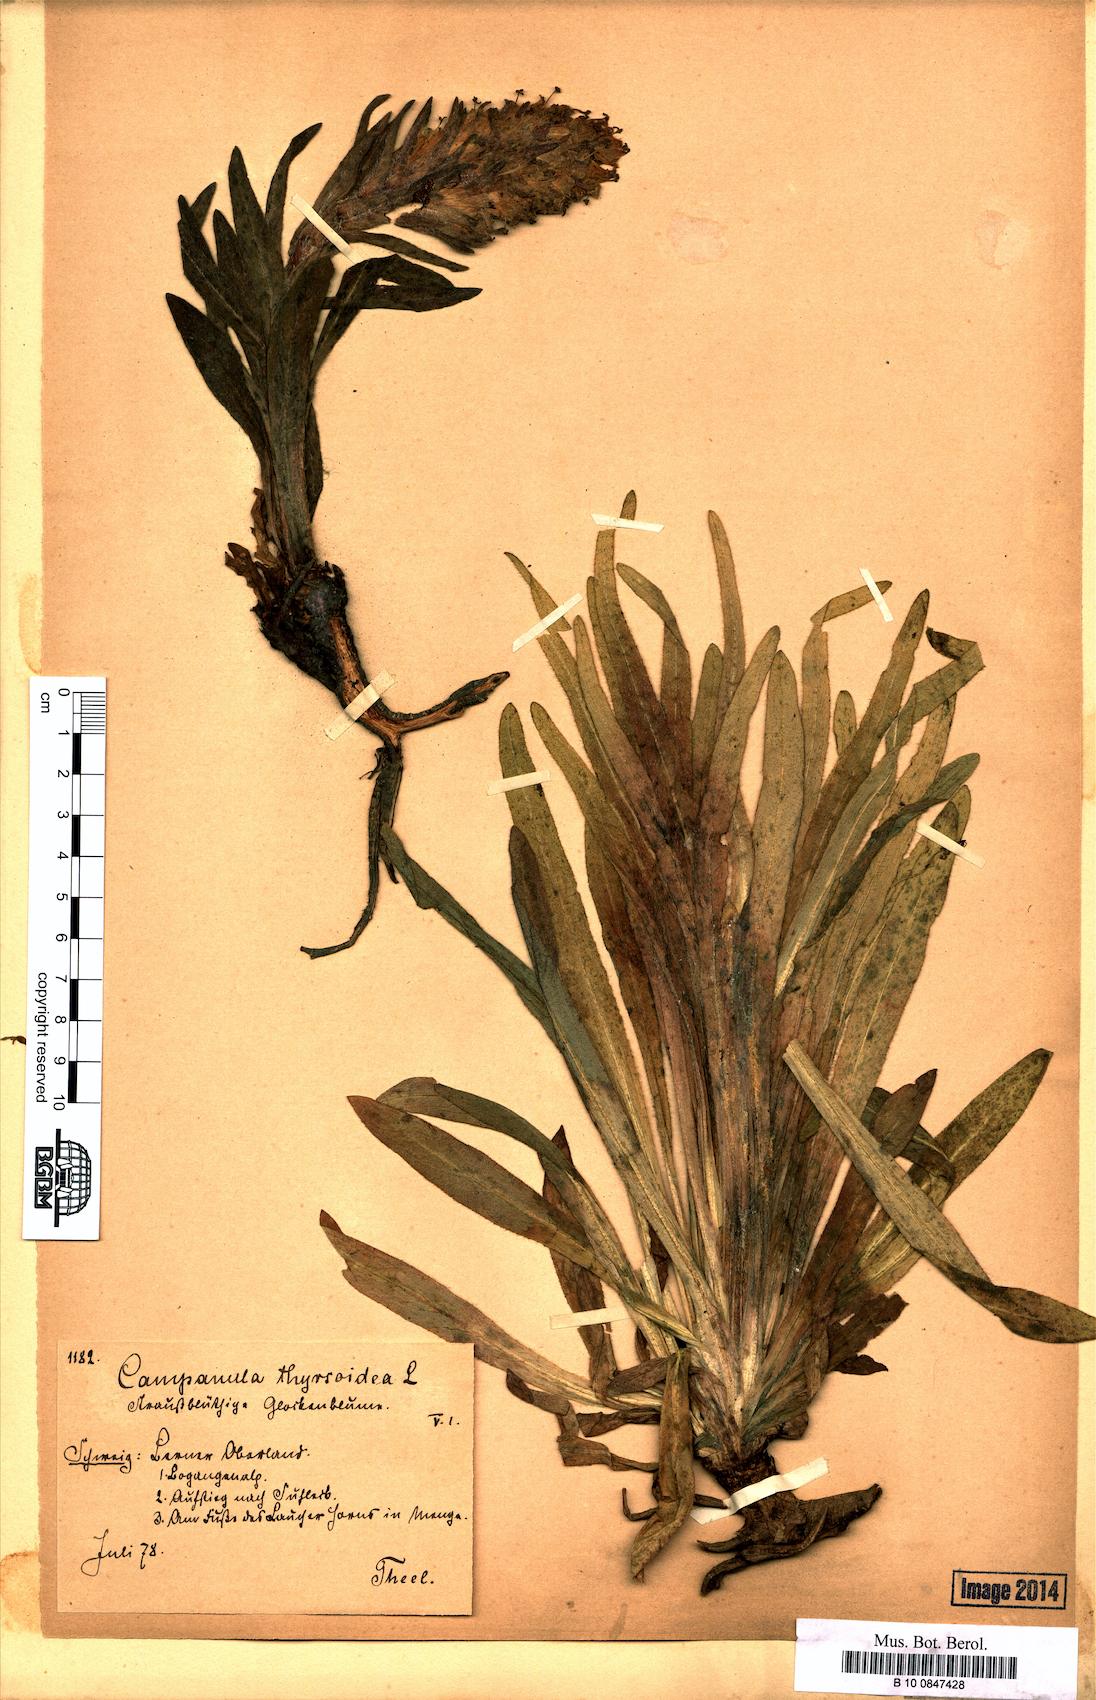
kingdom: Plantae
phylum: Tracheophyta
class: Magnoliopsida
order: Asterales
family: Campanulaceae
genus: Campanula
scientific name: Campanula thyrsoides
